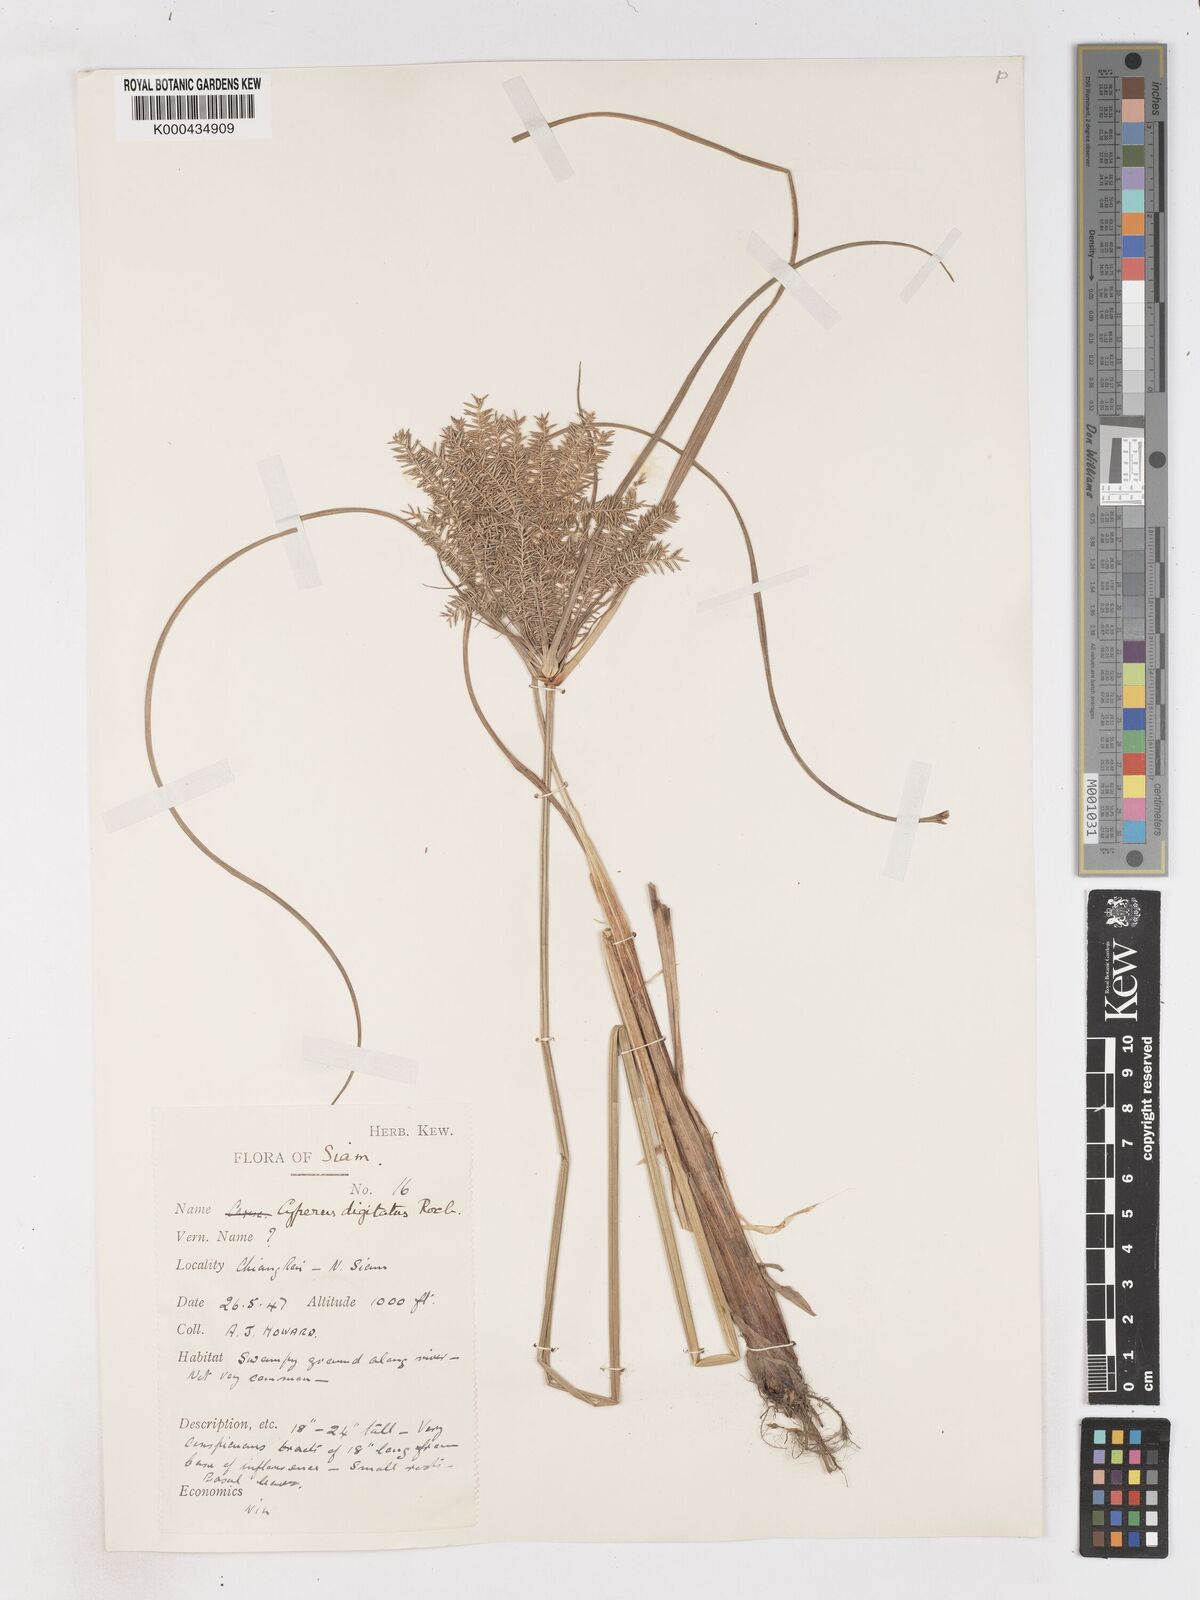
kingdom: Plantae
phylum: Tracheophyta
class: Liliopsida
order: Poales
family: Cyperaceae
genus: Cyperus
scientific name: Cyperus digitatus
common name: Finger flatsedge
